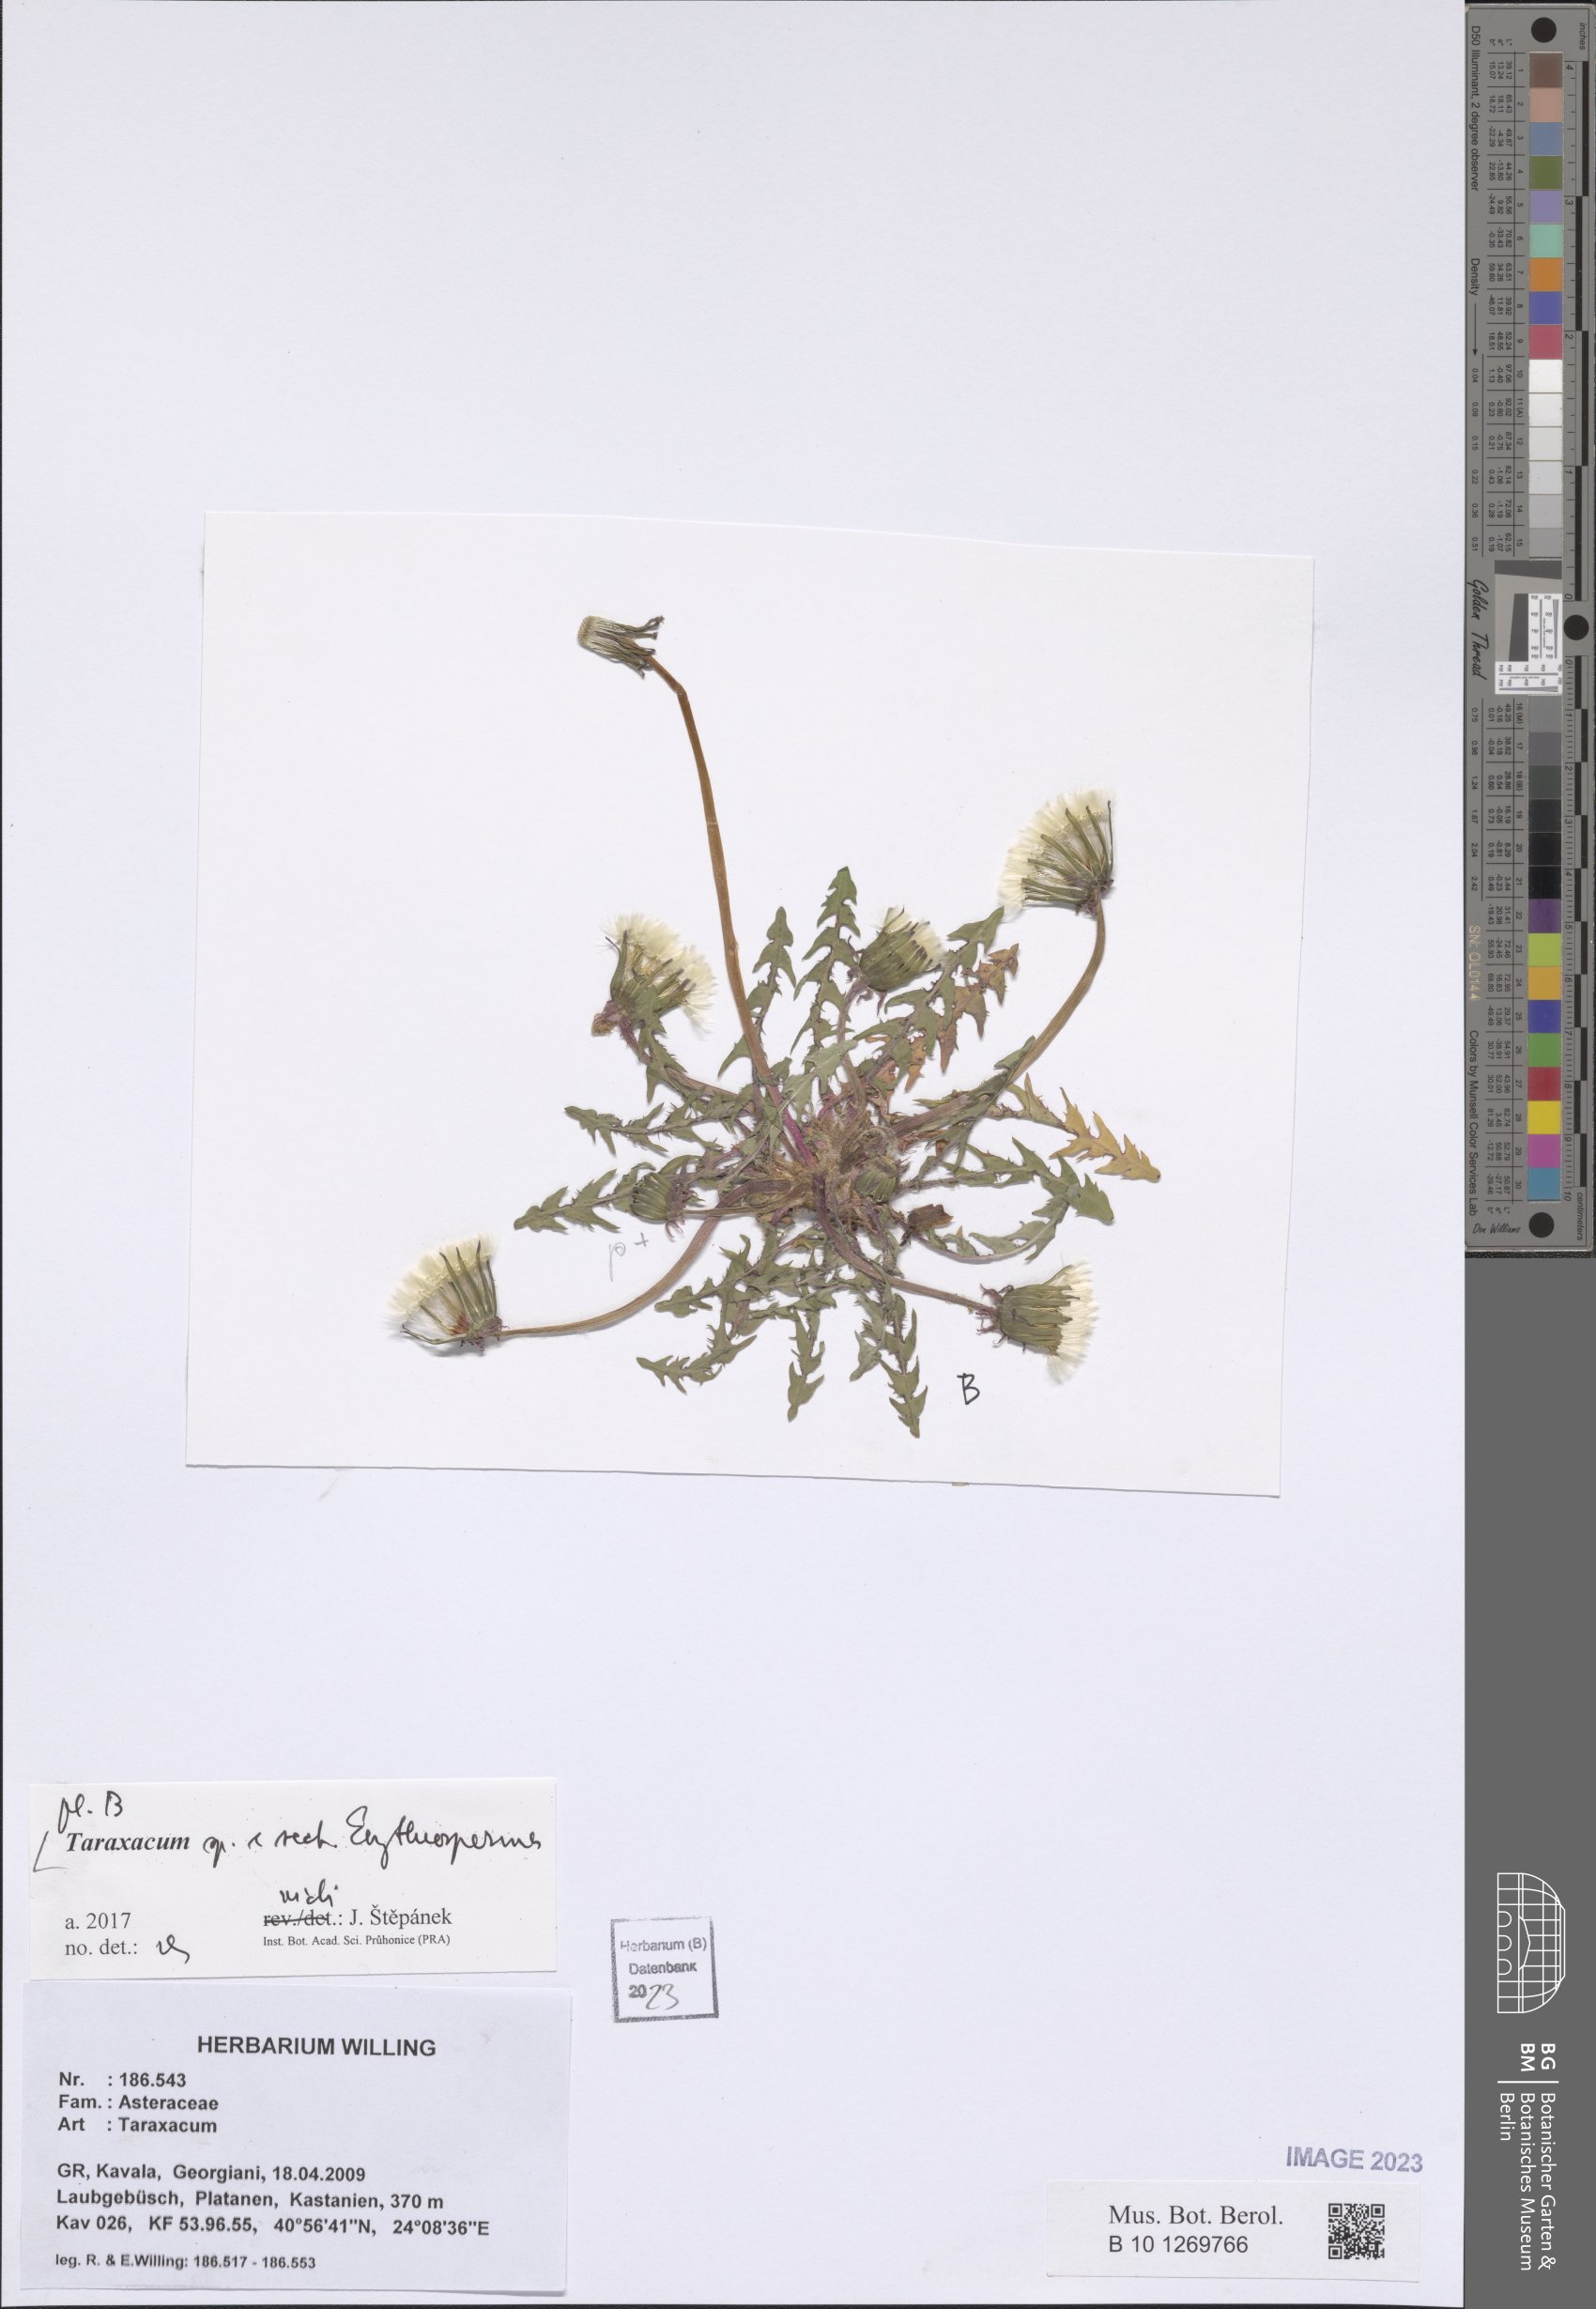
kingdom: Plantae
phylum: Tracheophyta
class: Magnoliopsida
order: Asterales
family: Asteraceae
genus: Taraxacum
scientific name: Taraxacum
